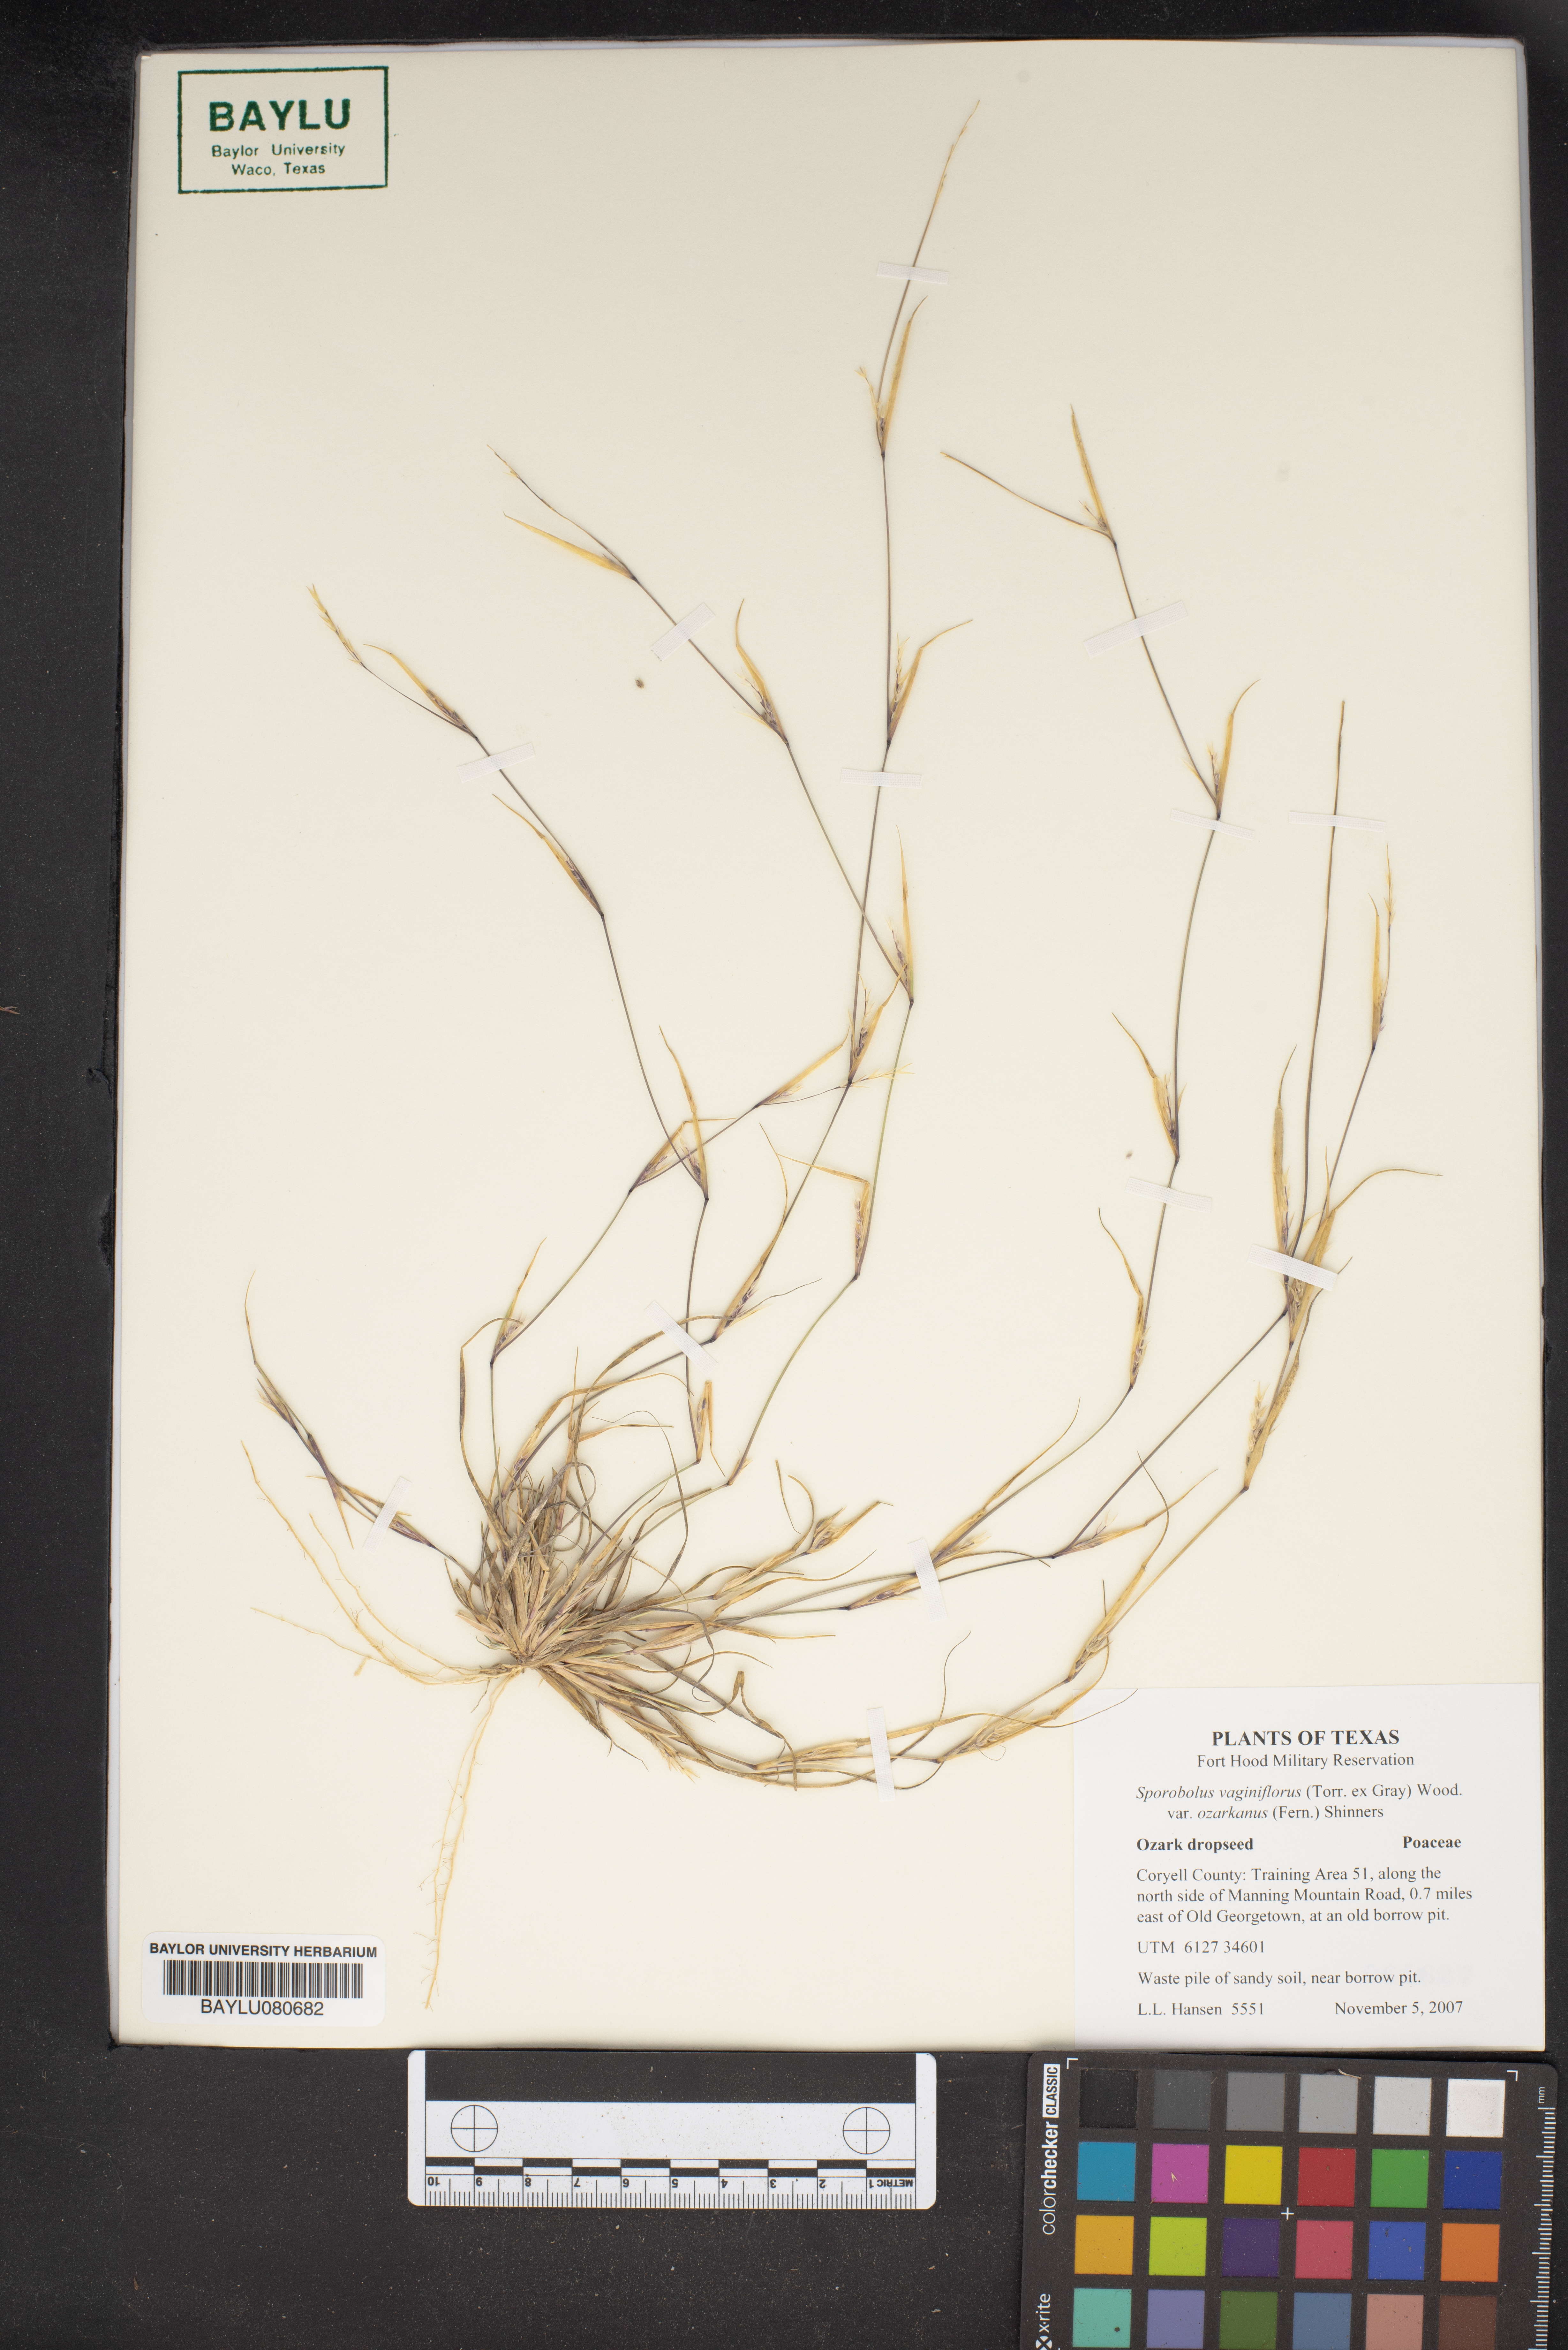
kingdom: Plantae
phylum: Tracheophyta
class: Liliopsida
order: Poales
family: Poaceae
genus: Sporobolus
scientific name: Sporobolus neglectus
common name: Annual dropseed
